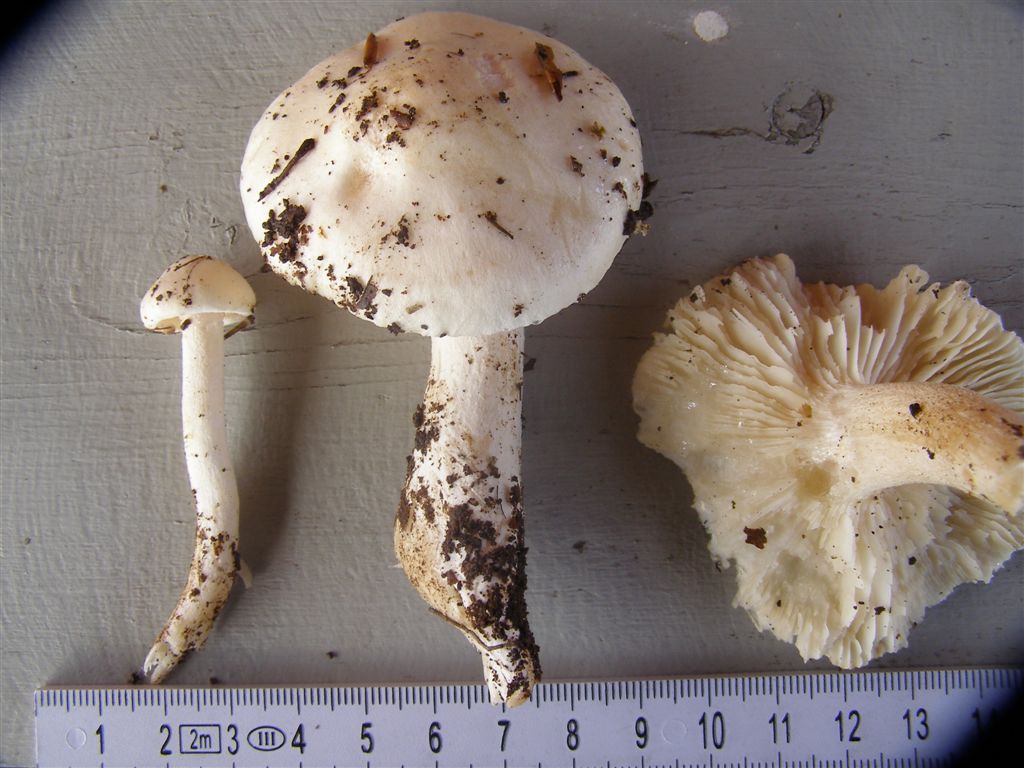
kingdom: Fungi
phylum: Basidiomycota
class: Agaricomycetes
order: Agaricales
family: Hygrophoraceae
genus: Hygrophorus
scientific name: Hygrophorus penarius
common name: spiselig sneglehat
